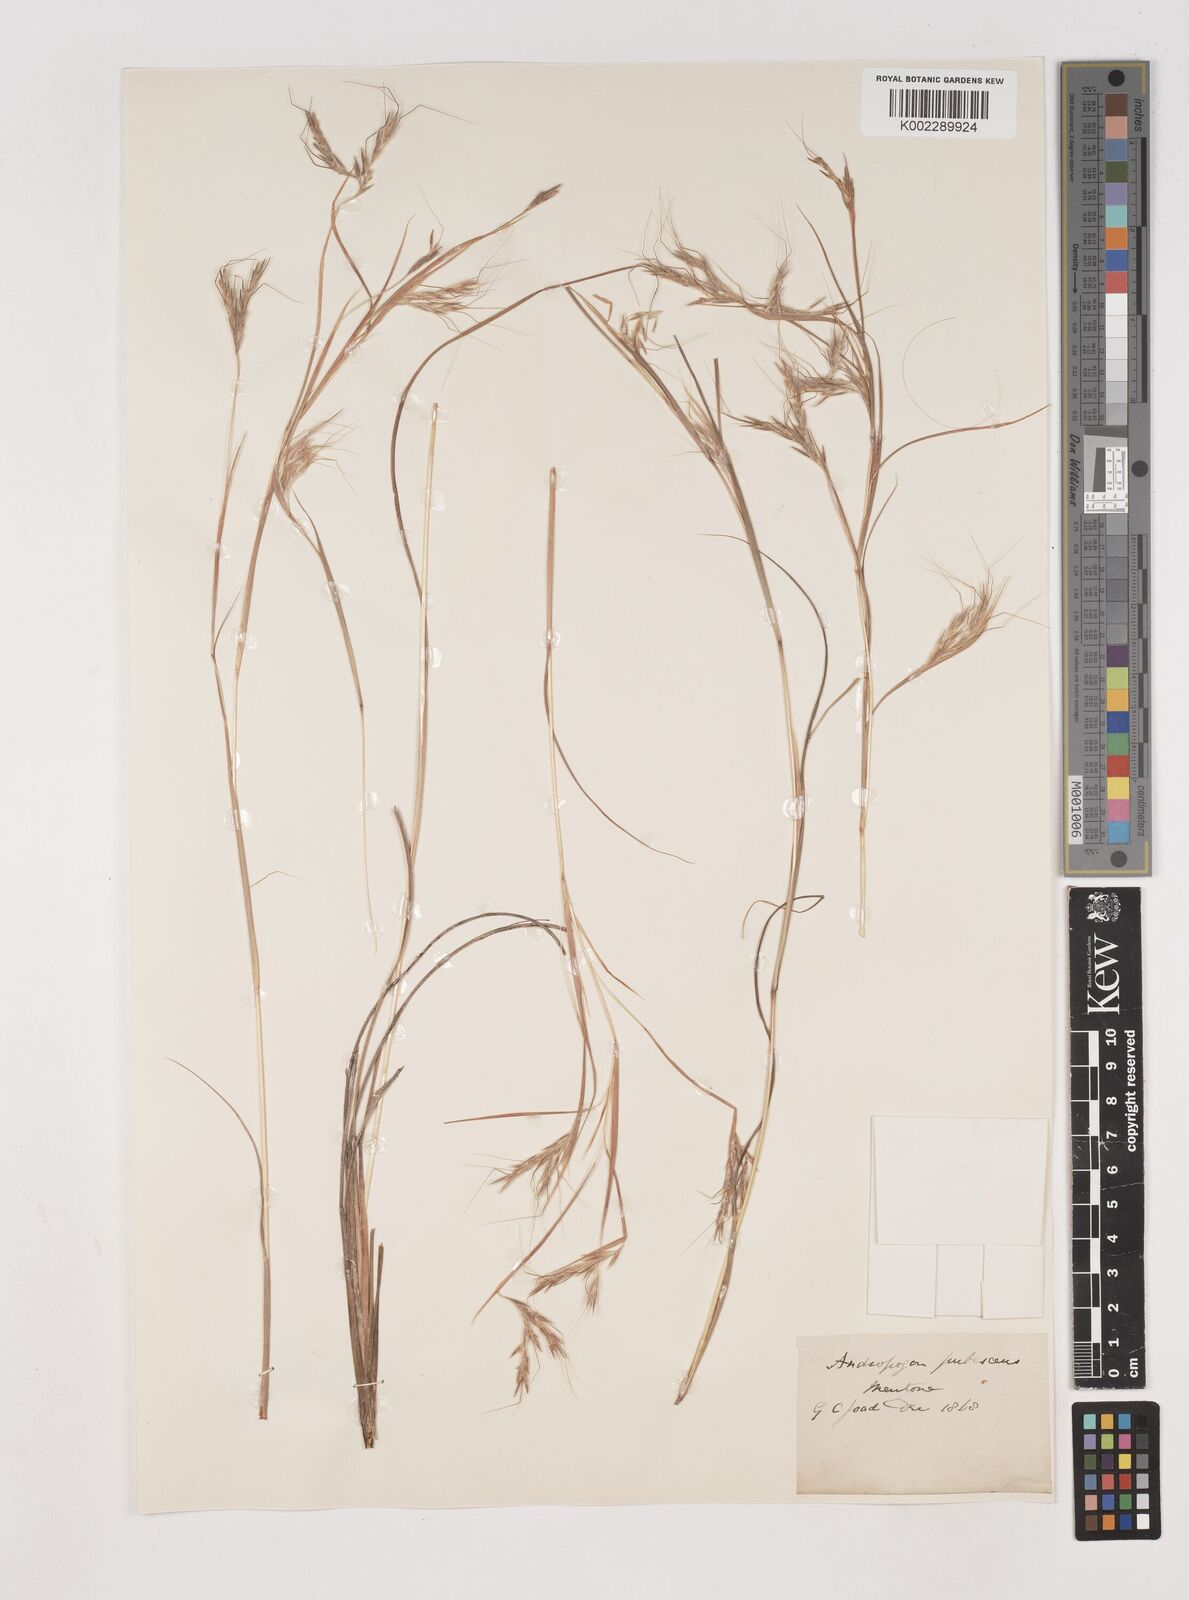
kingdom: Plantae
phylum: Tracheophyta
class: Liliopsida
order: Poales
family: Poaceae
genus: Hyparrhenia
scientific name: Hyparrhenia hirta
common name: Thatching grass
